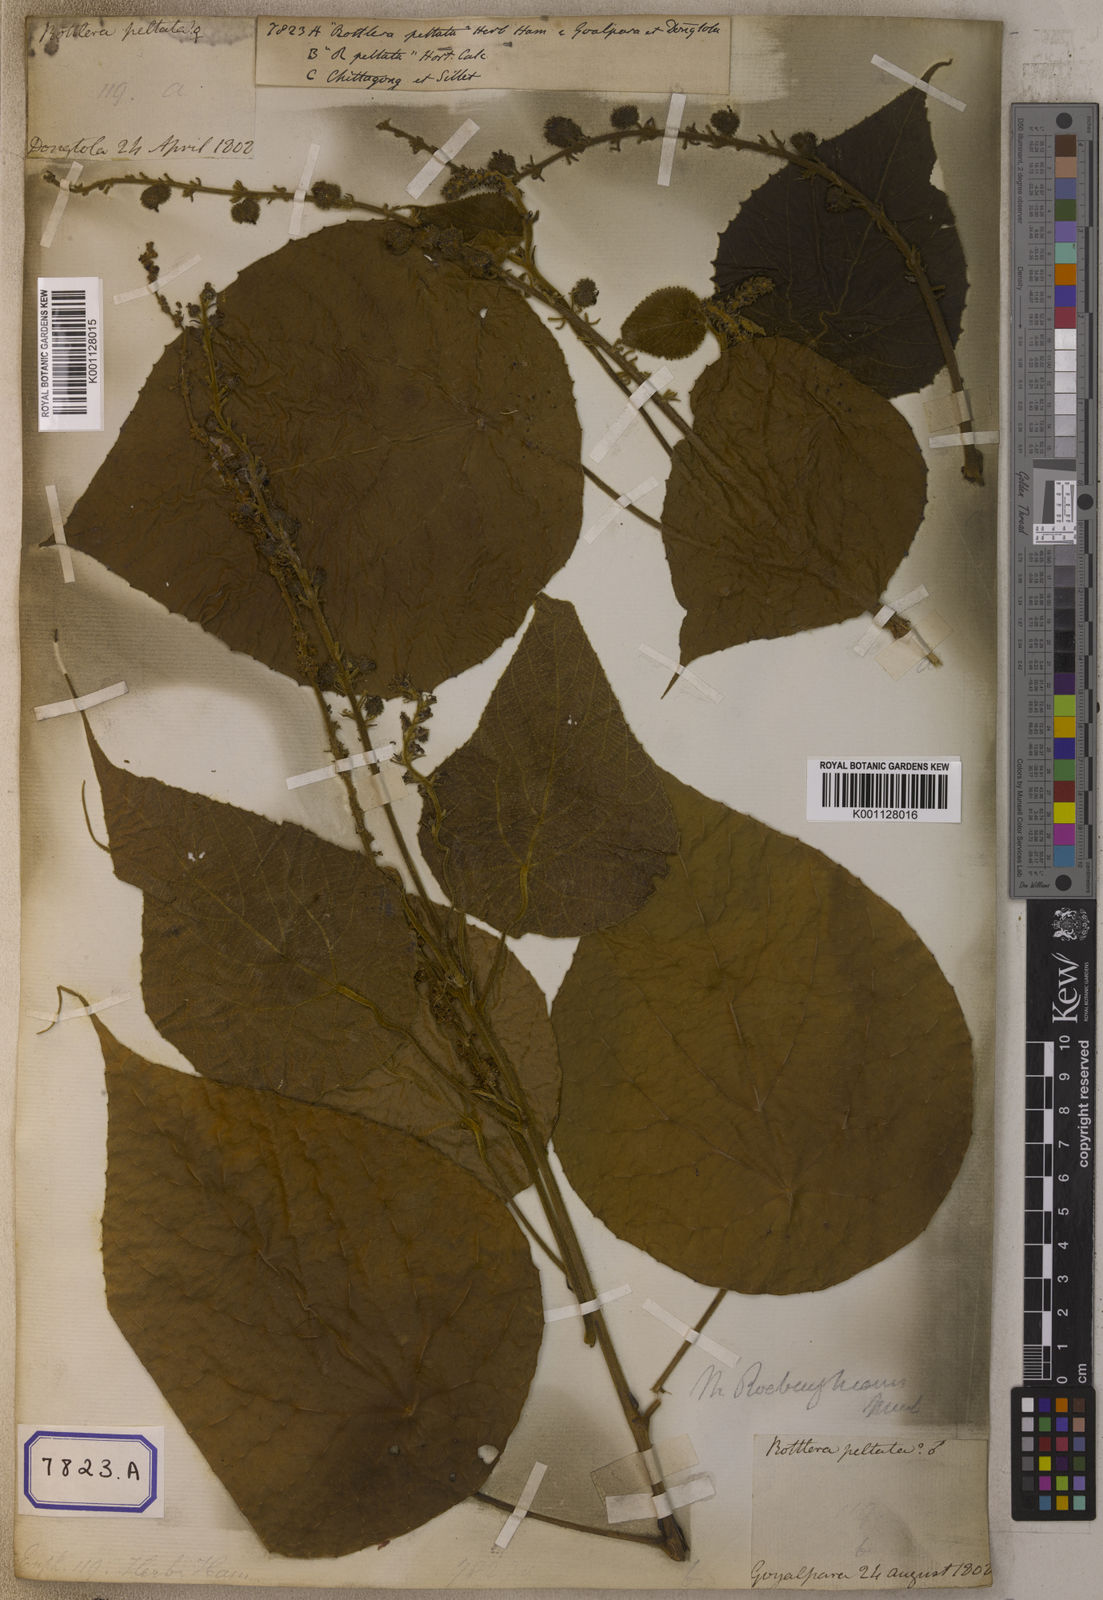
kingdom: Plantae
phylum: Tracheophyta
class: Magnoliopsida
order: Malpighiales
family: Euphorbiaceae
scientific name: Euphorbiaceae
